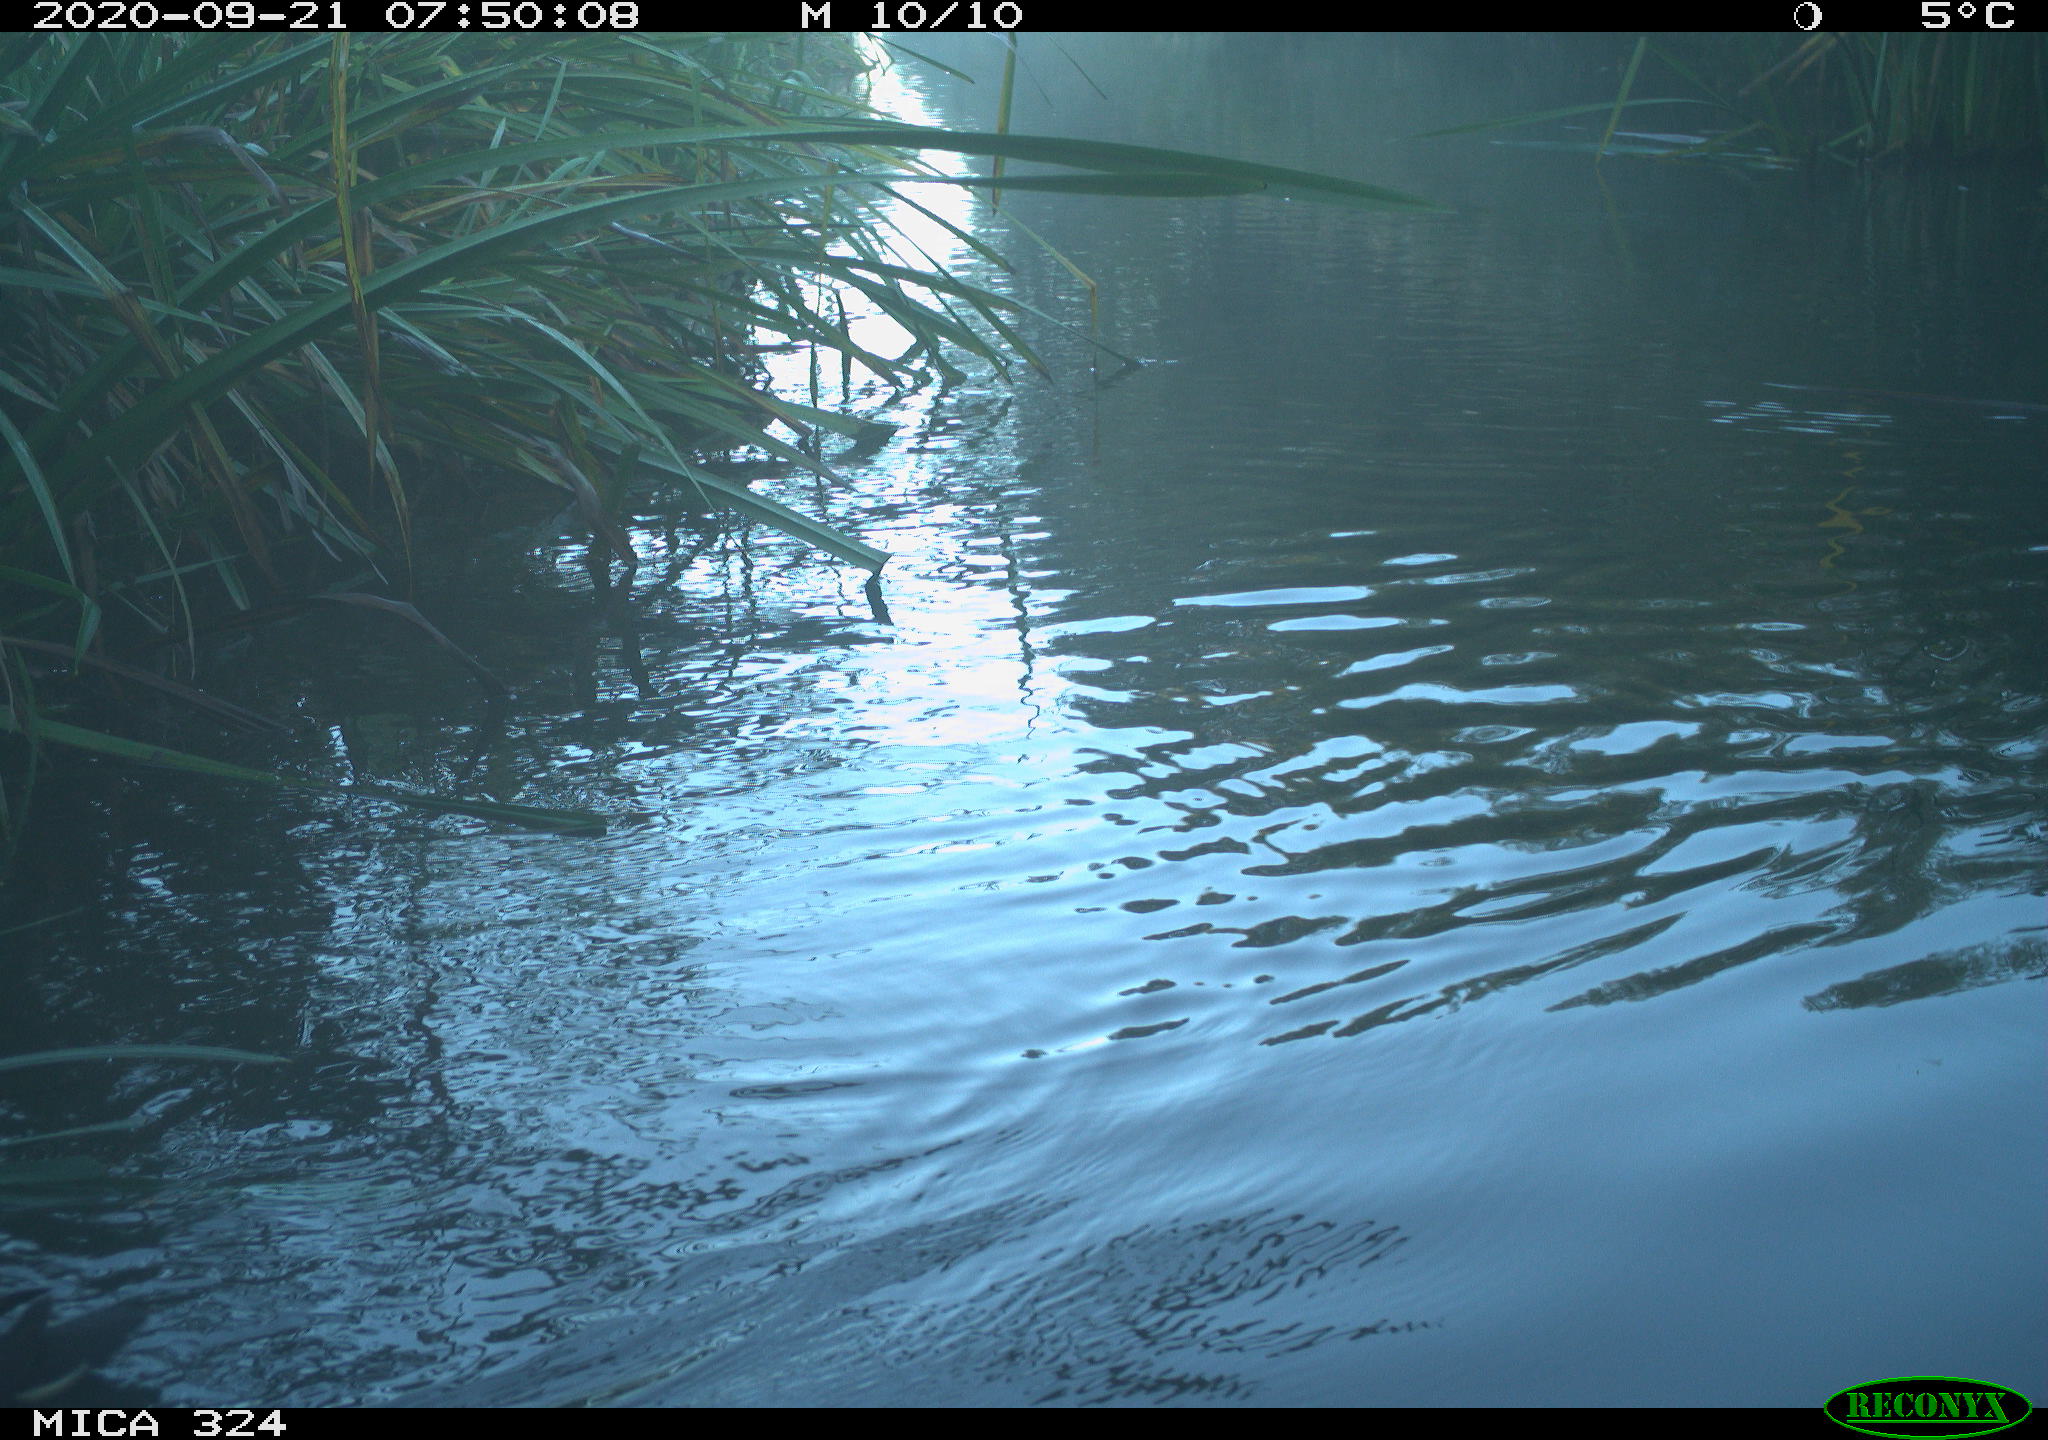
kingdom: Animalia
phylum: Chordata
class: Aves
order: Gruiformes
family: Rallidae
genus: Gallinula
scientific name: Gallinula chloropus
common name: Common moorhen
